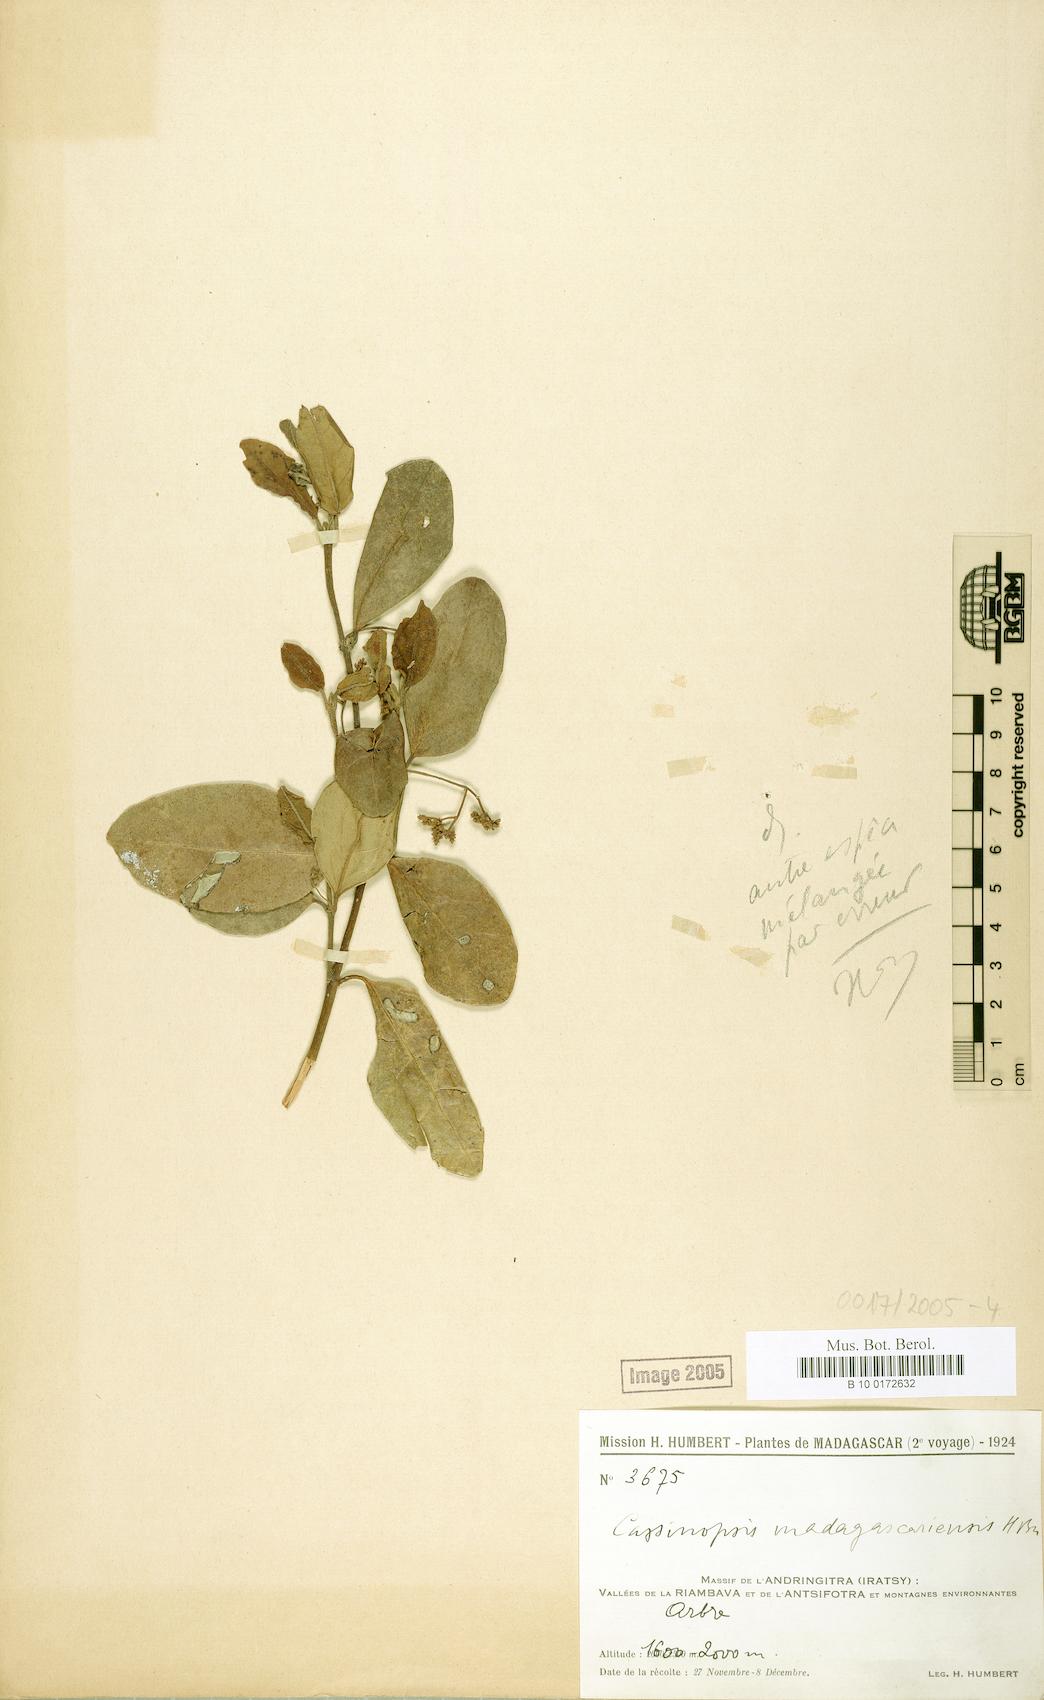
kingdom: Plantae
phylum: Tracheophyta
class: Magnoliopsida
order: Icacinales
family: Icacinaceae
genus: Cassinopsis
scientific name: Cassinopsis madagascariensis
